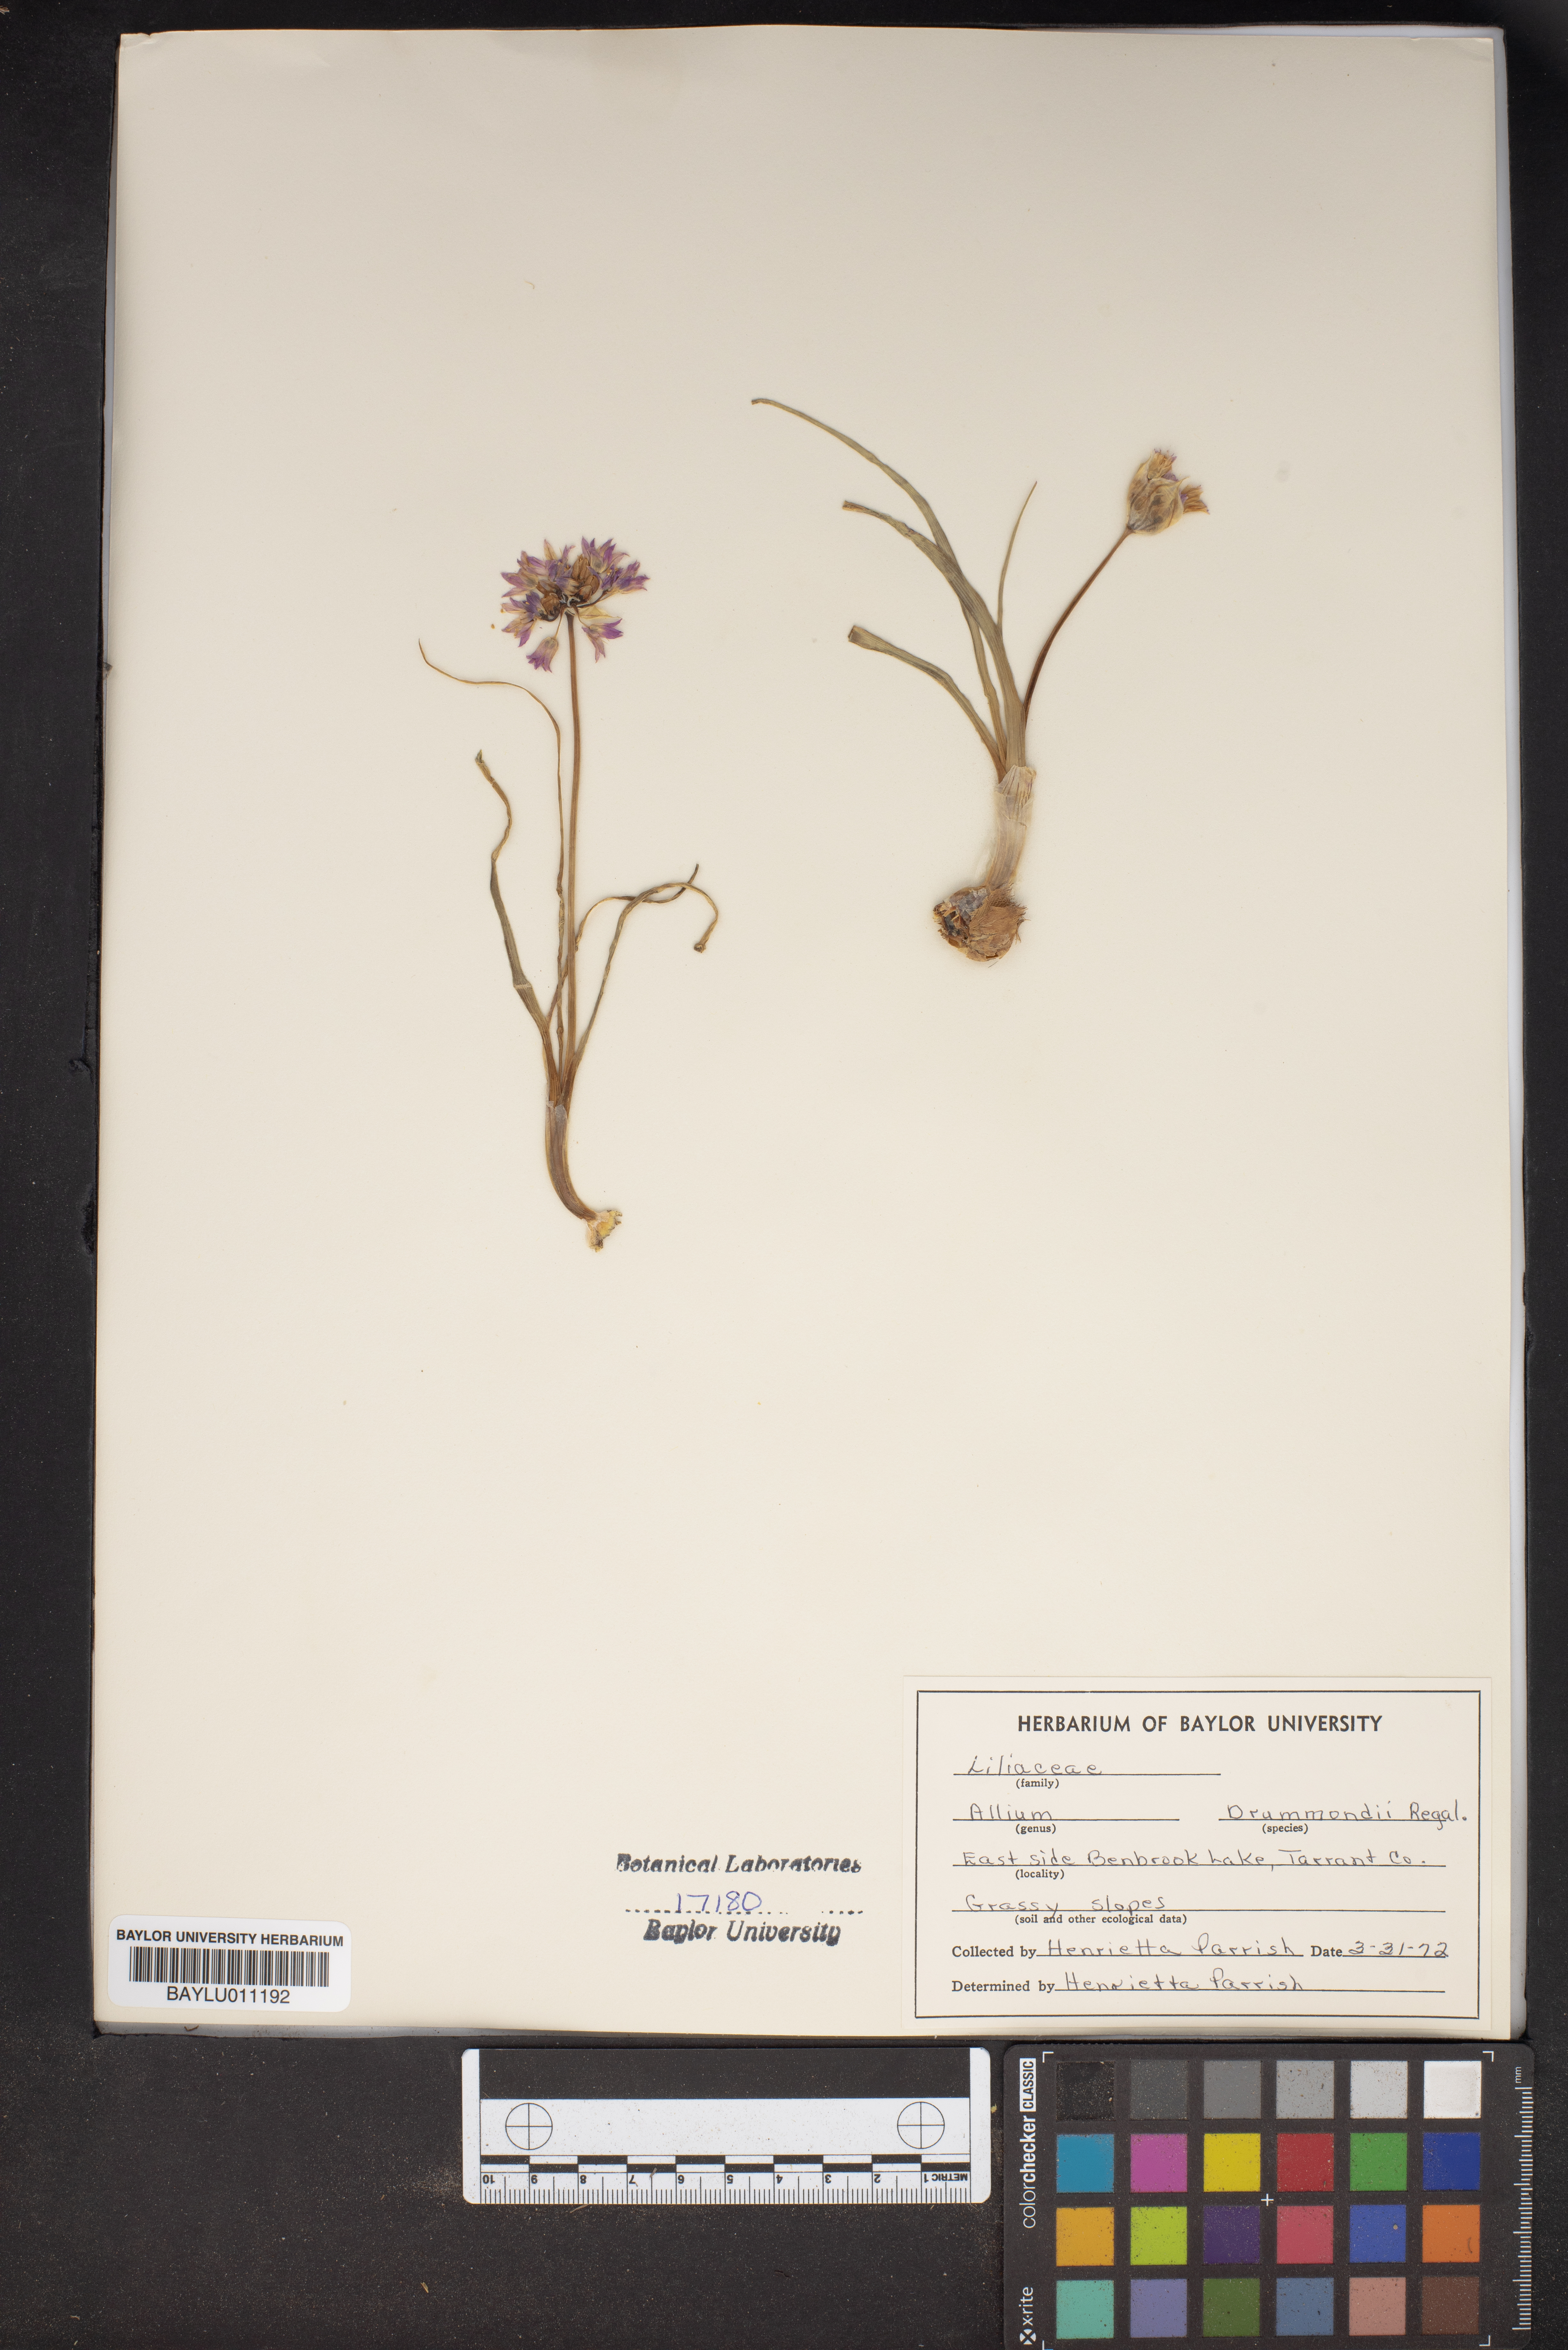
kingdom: Plantae
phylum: Tracheophyta
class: Liliopsida
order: Asparagales
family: Amaryllidaceae
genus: Allium
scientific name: Allium drummondii
